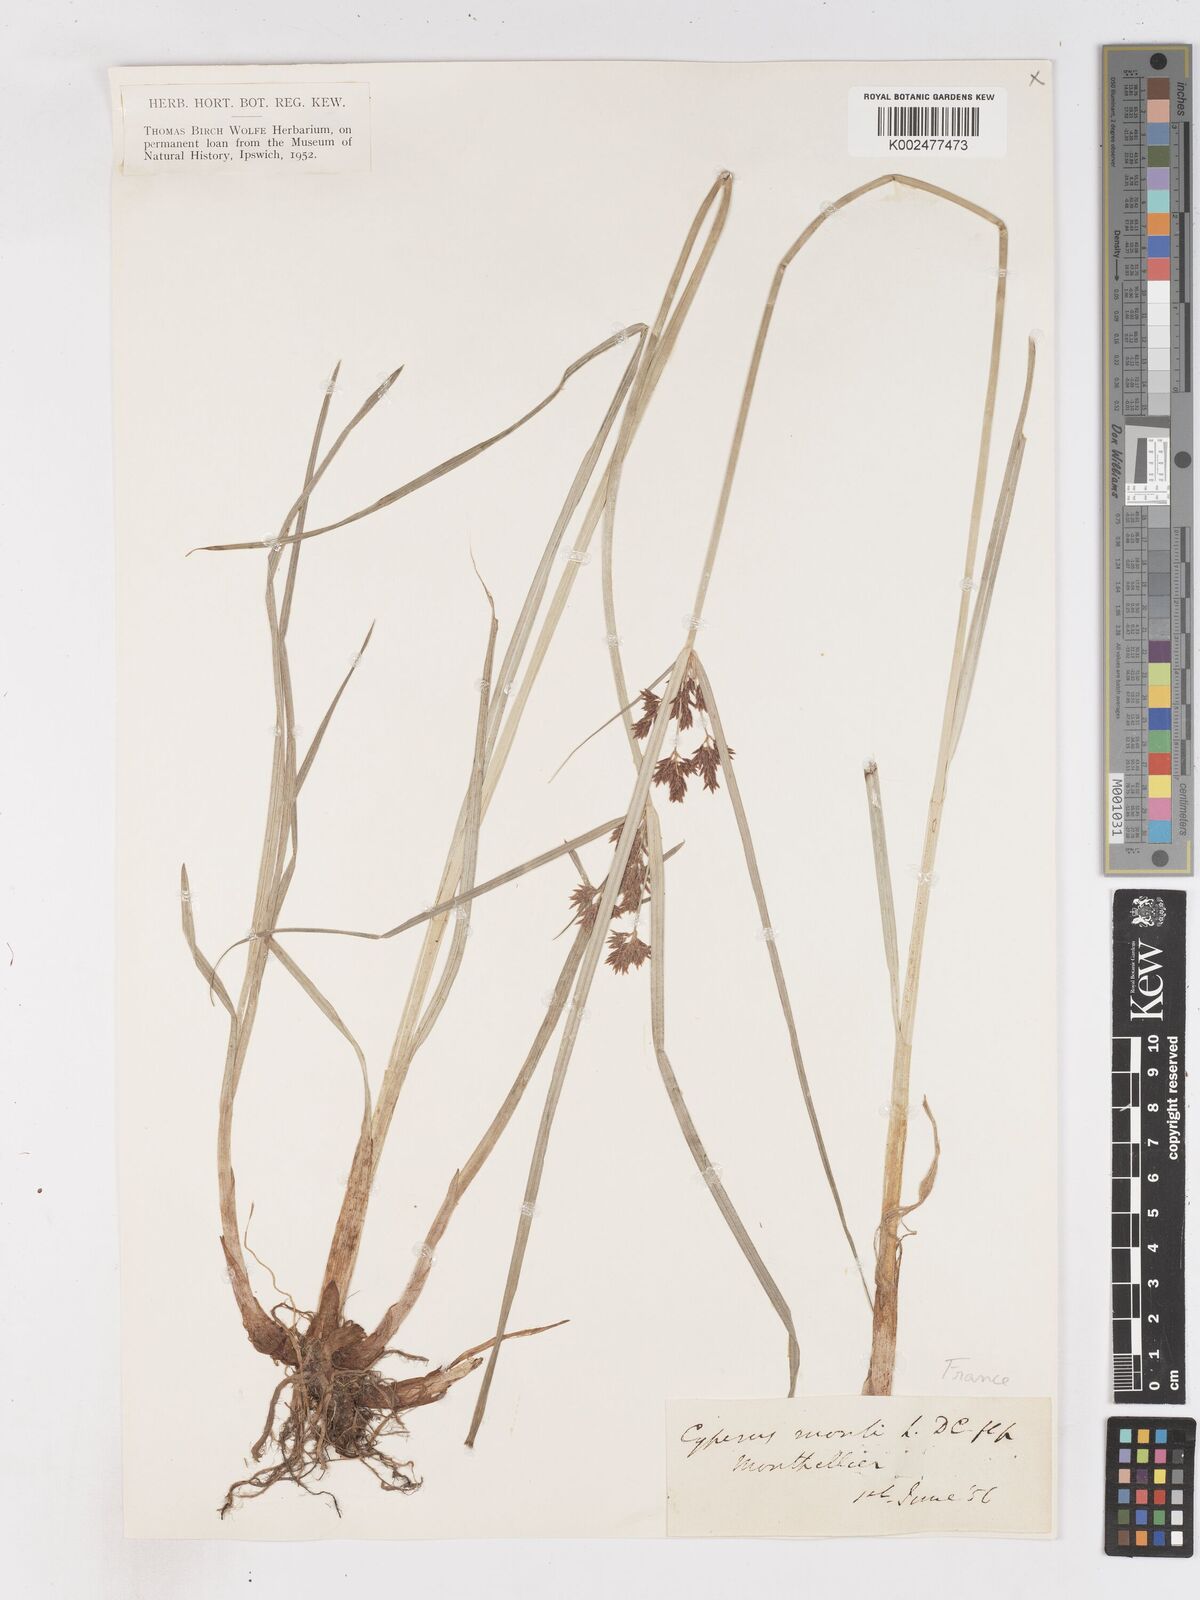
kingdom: Plantae
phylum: Tracheophyta
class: Liliopsida
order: Poales
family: Cyperaceae
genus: Cyperus
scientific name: Cyperus serotinus
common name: Tidalmarsh flatsedge
